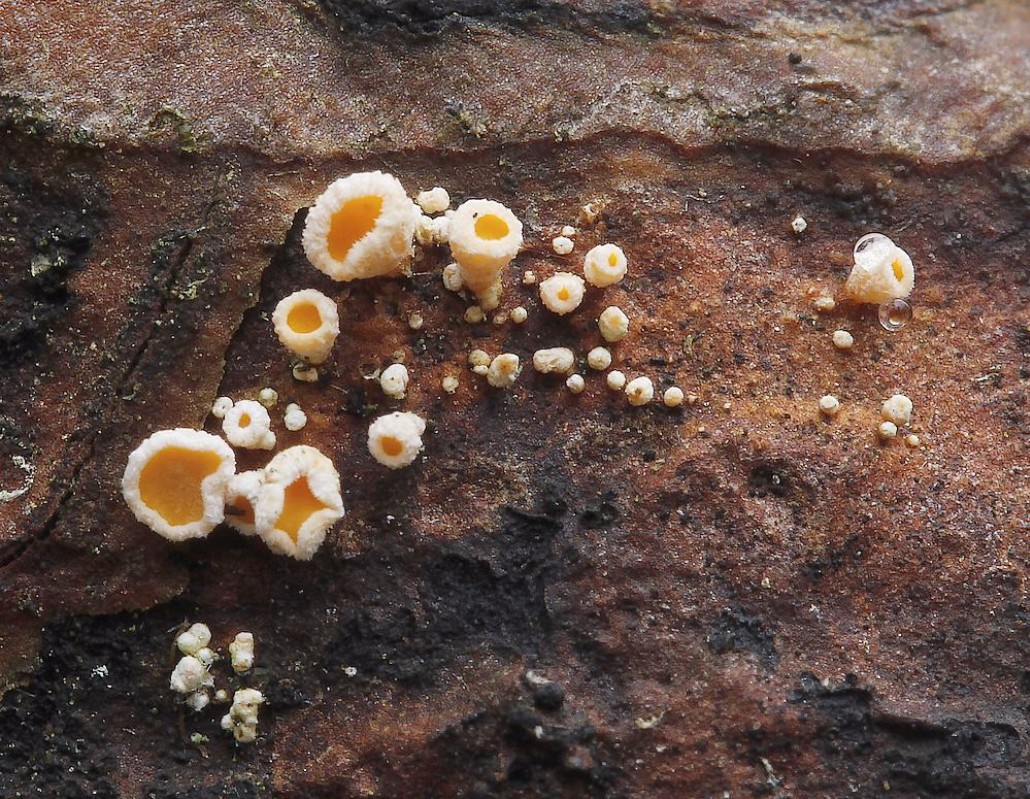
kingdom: Fungi
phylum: Ascomycota
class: Leotiomycetes
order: Helotiales
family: Lachnaceae
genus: Lachnellula
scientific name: Lachnellula subtilissima
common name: gran-frynseskive
